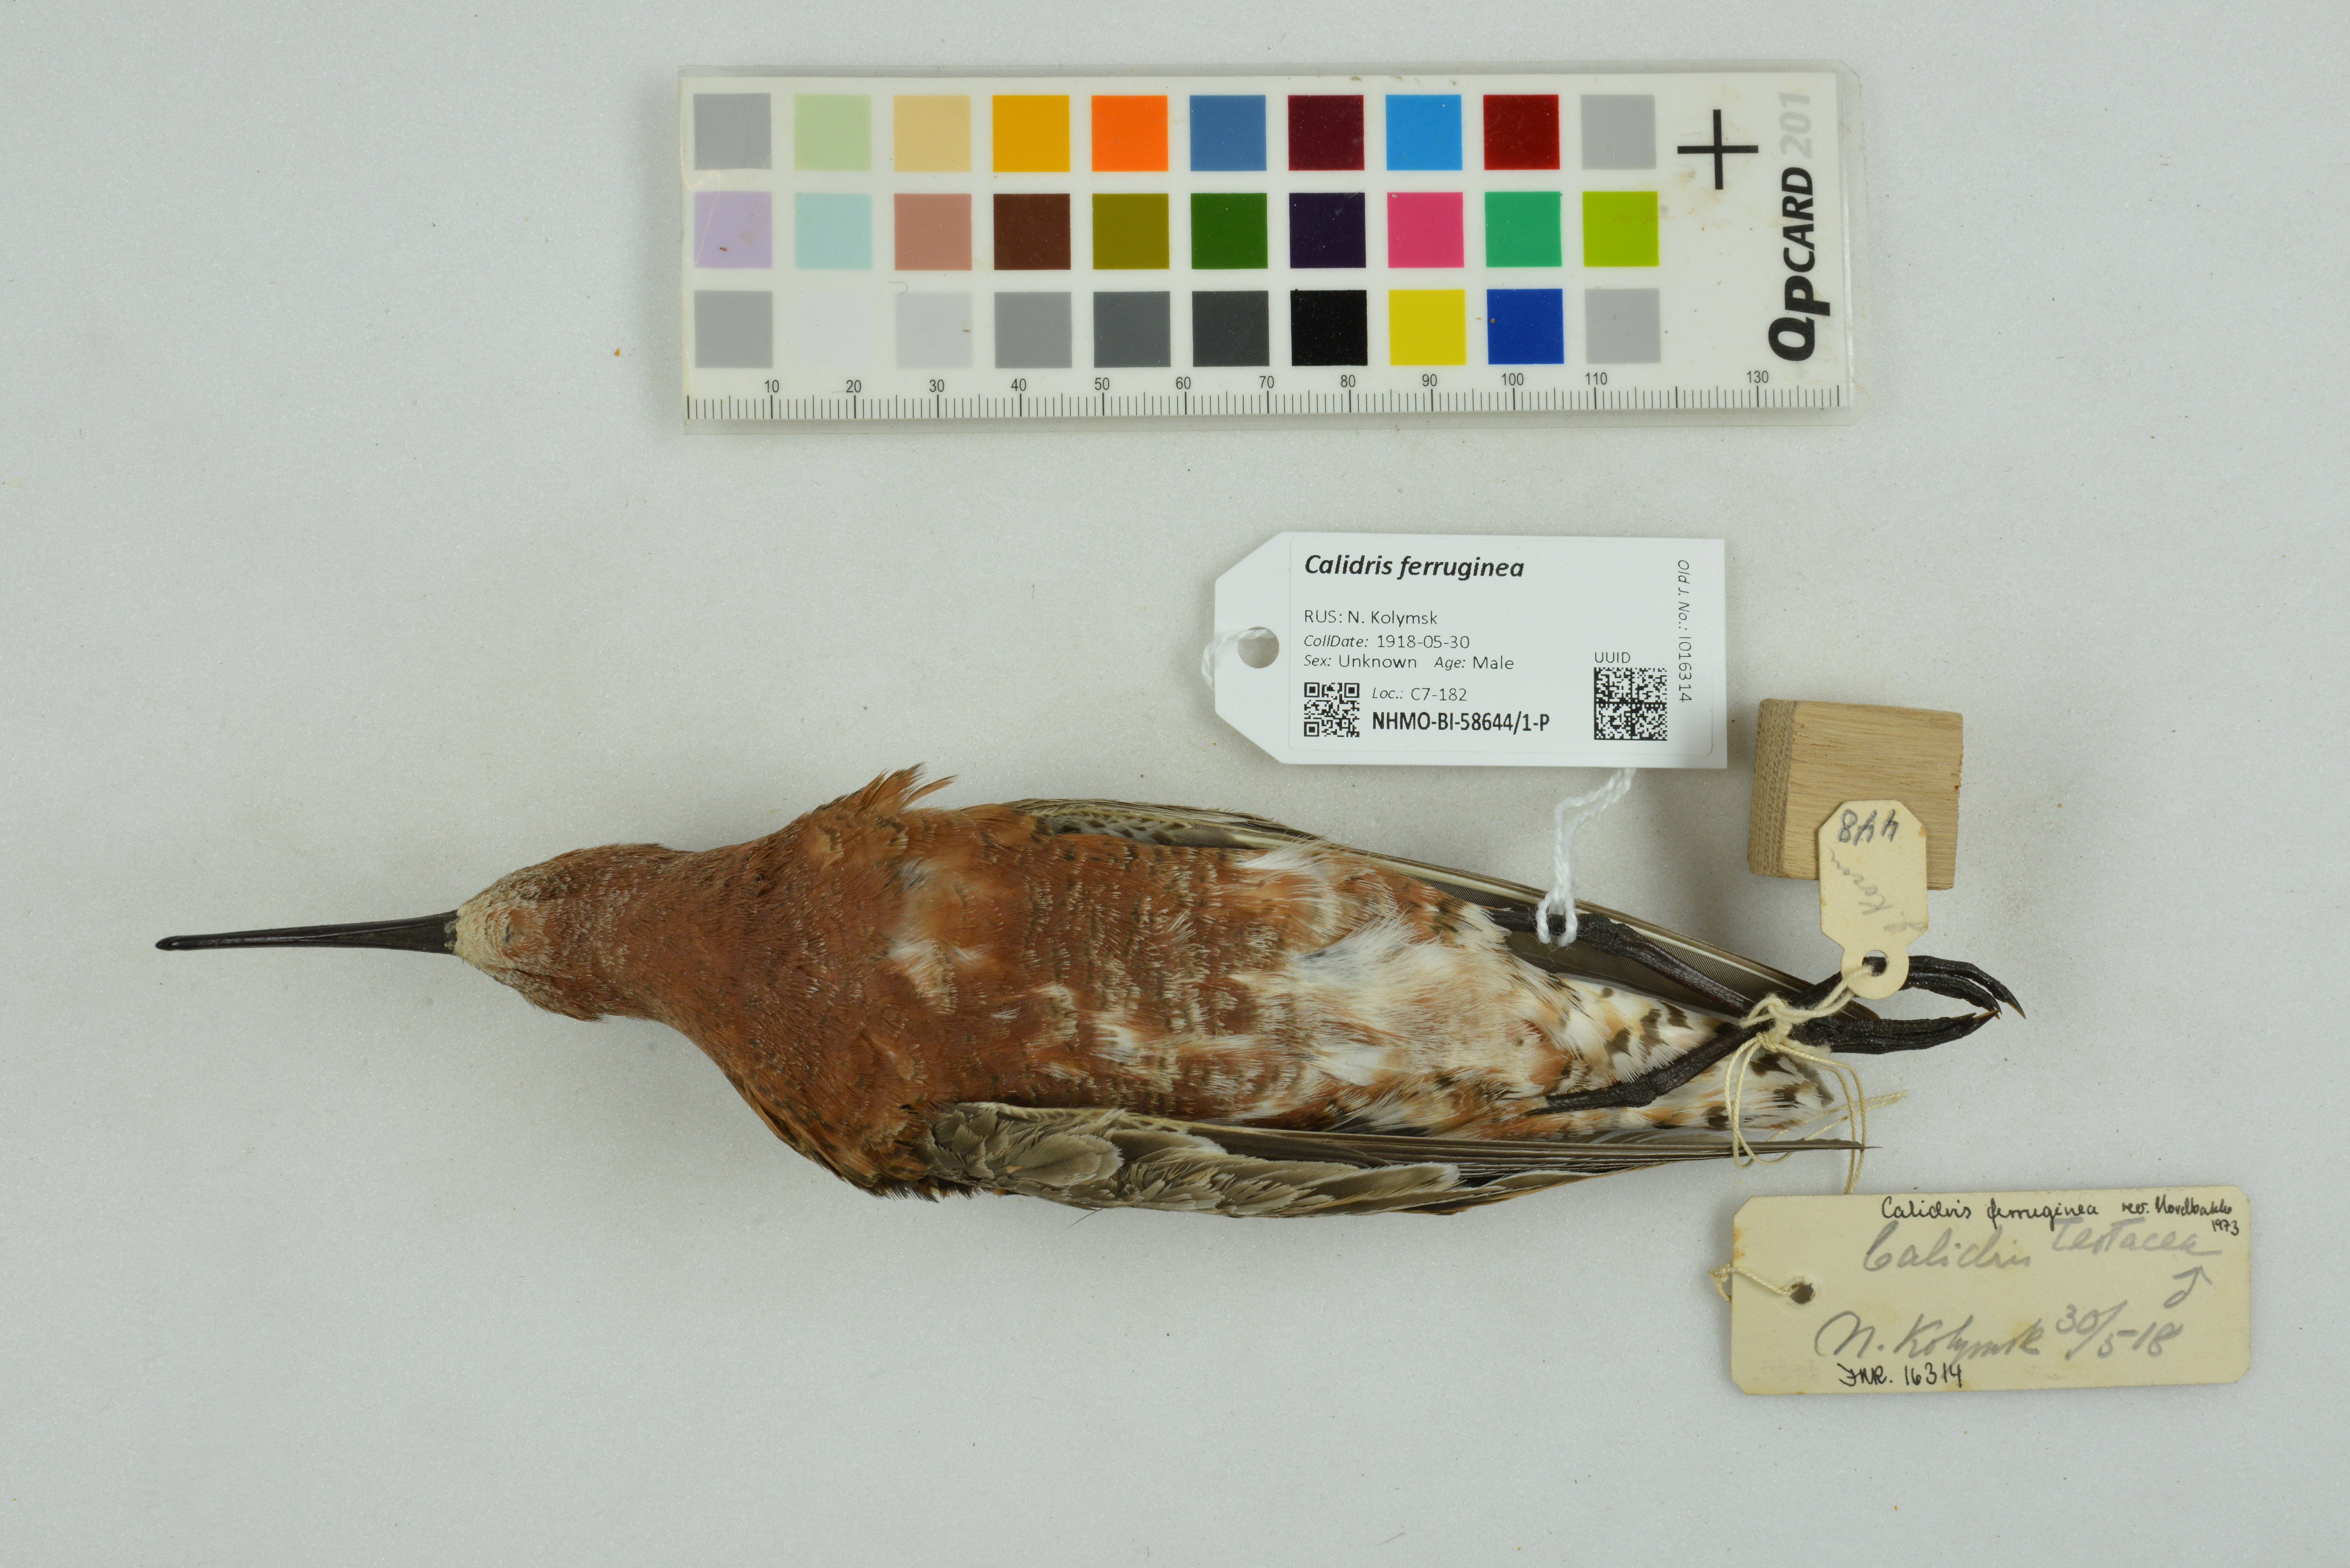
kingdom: Animalia
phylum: Chordata
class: Aves
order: Charadriiformes
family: Scolopacidae
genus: Calidris
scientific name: Calidris ferruginea
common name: Curlew sandpiper
